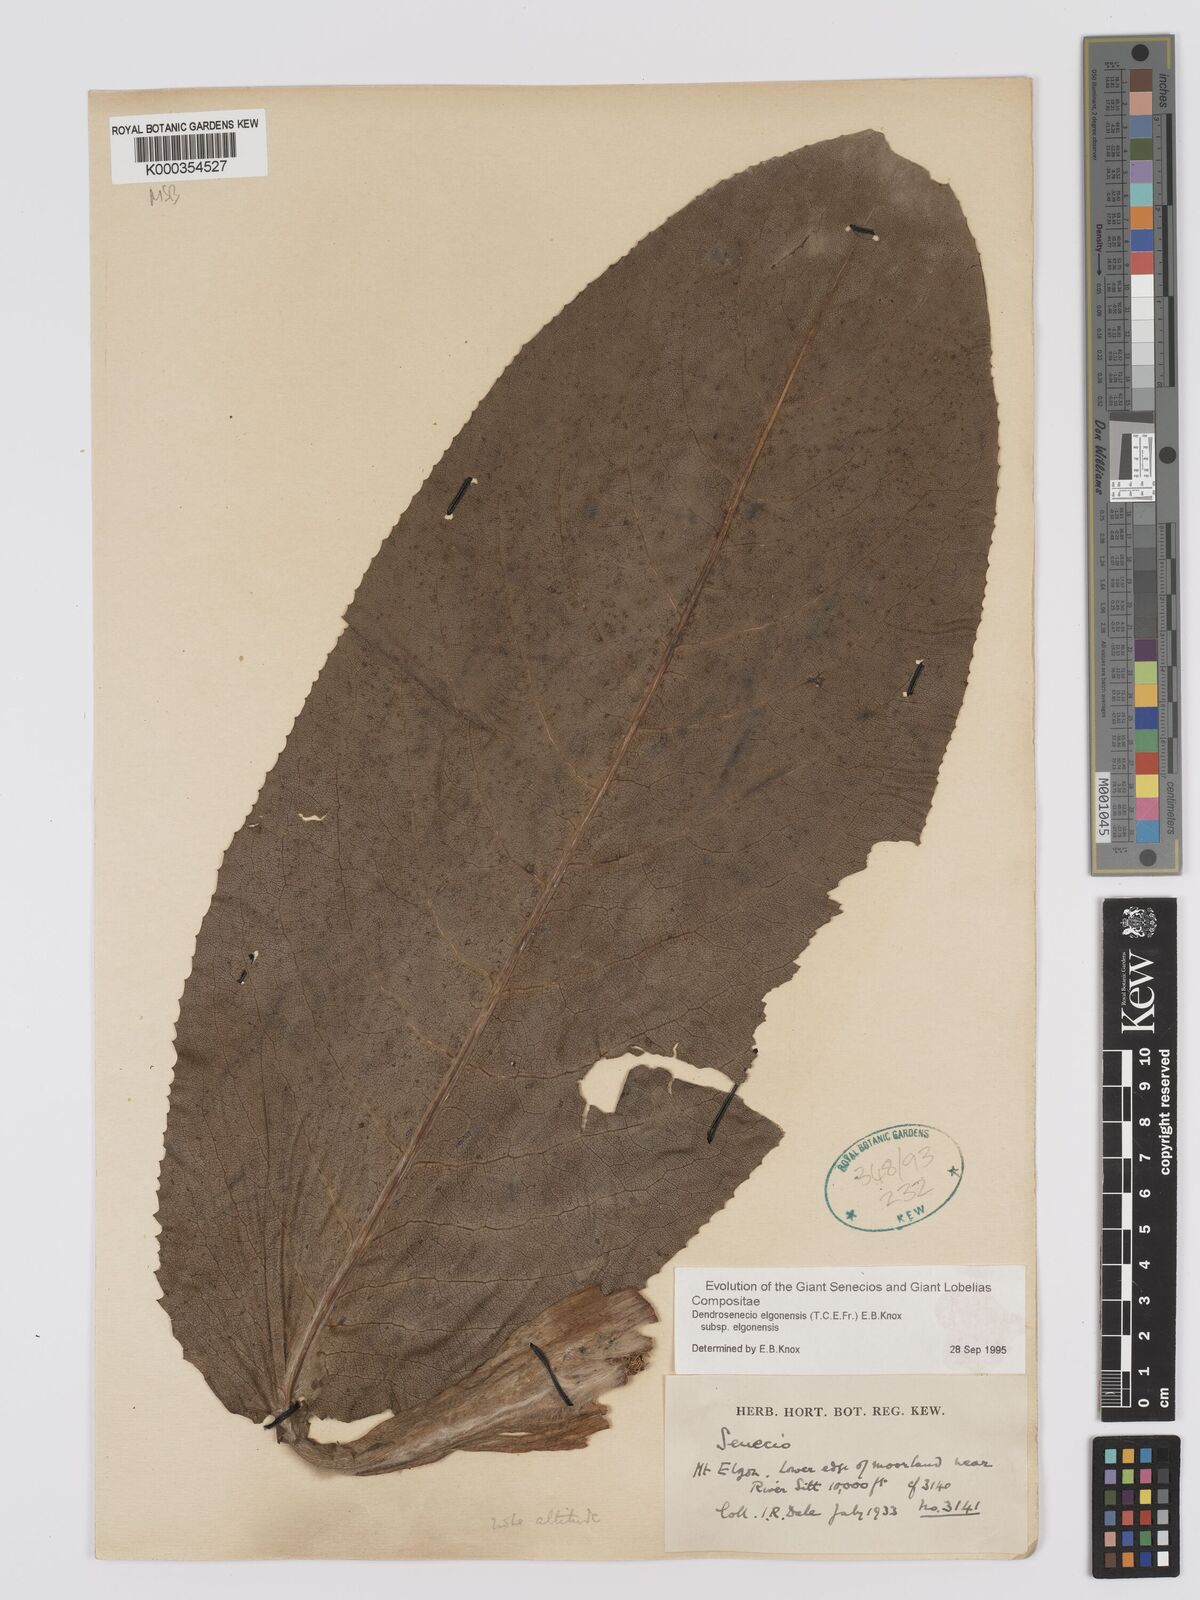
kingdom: Plantae
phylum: Tracheophyta
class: Magnoliopsida
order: Asterales
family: Asteraceae
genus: Dendrosenecio
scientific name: Dendrosenecio elgonensis
